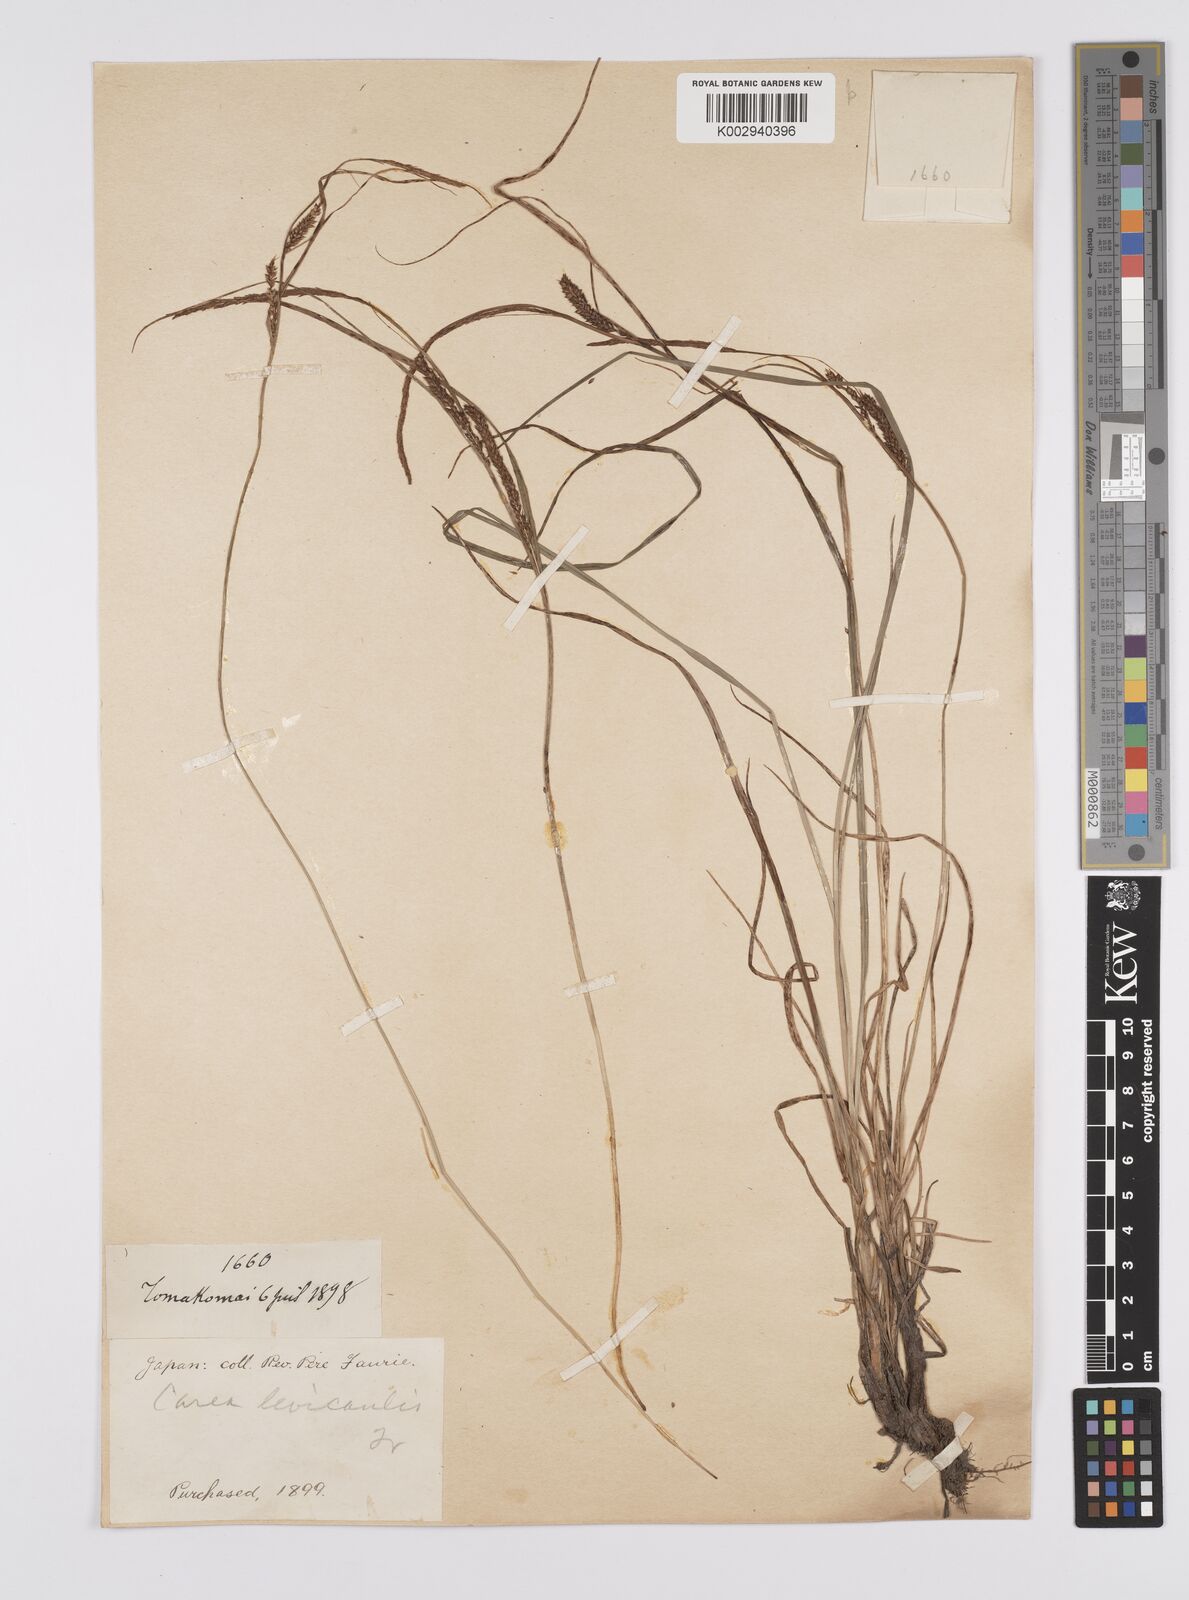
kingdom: Plantae
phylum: Tracheophyta
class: Liliopsida
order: Poales
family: Cyperaceae
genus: Carex
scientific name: Carex middendorffii
